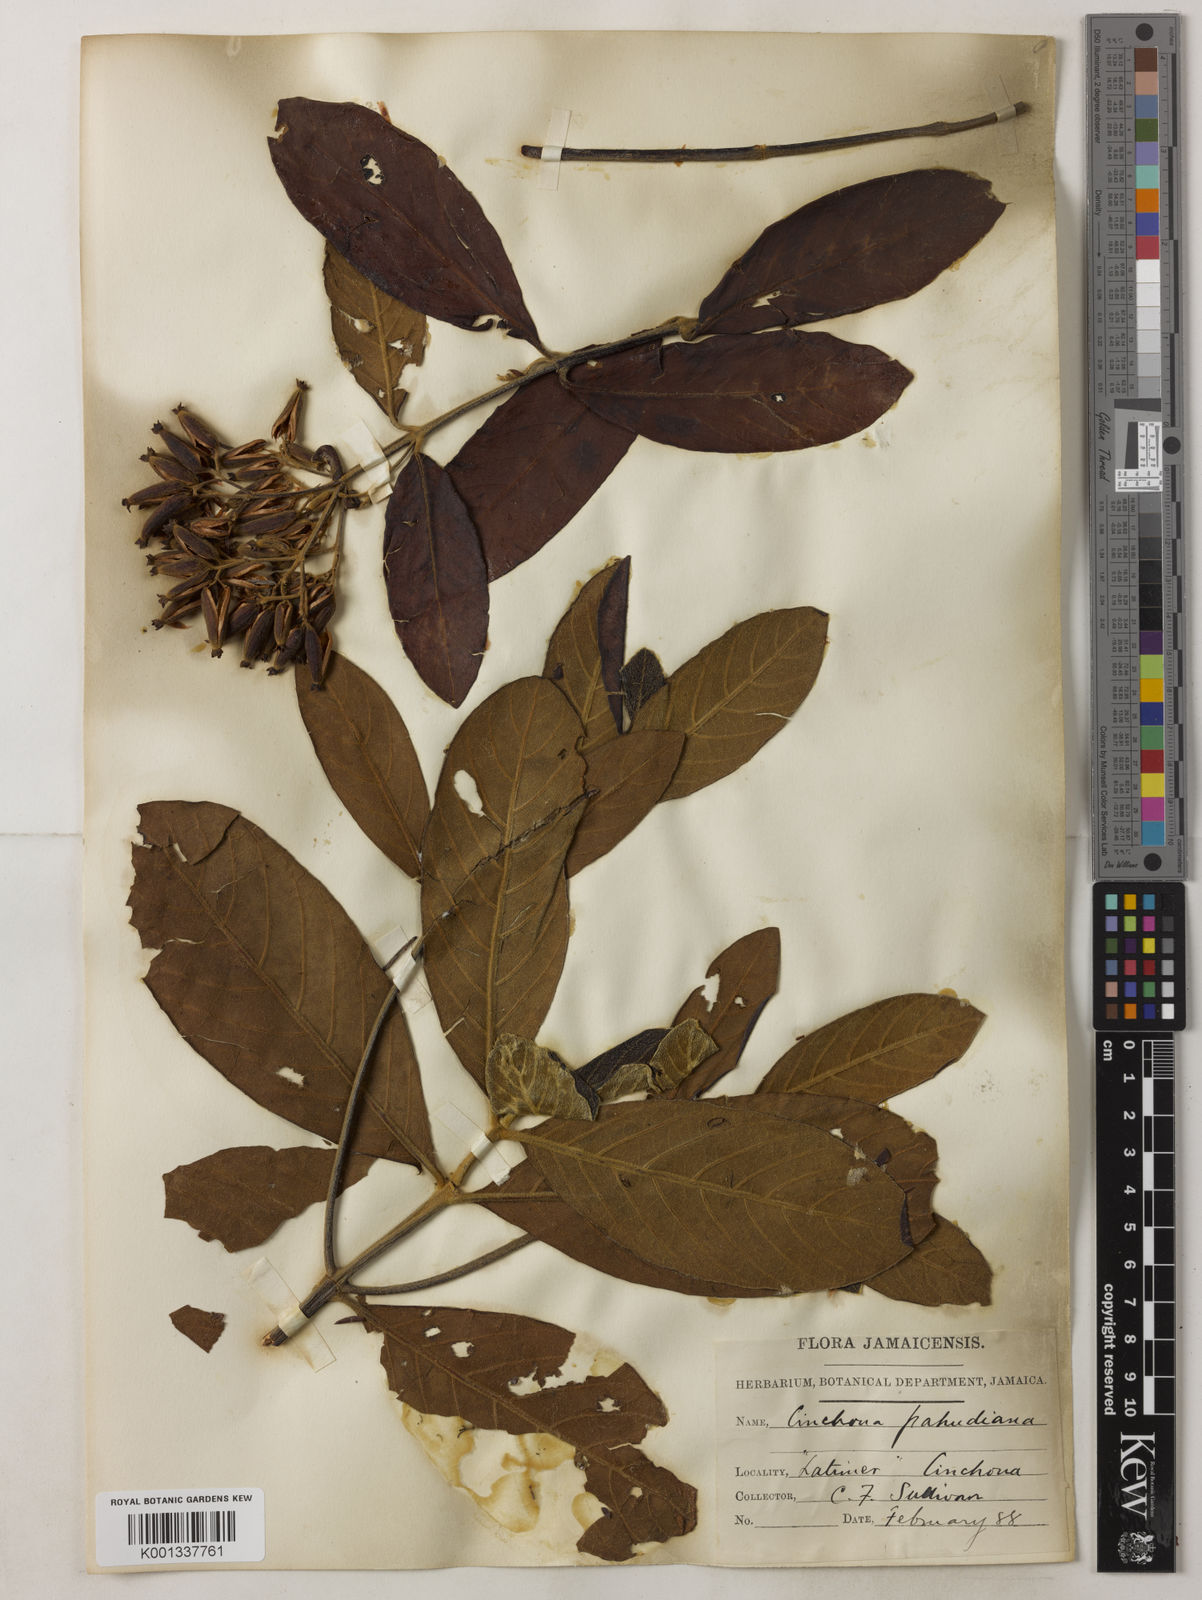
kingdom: Plantae
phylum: Tracheophyta
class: Magnoliopsida
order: Gentianales
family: Rubiaceae
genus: Cinchona
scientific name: Cinchona calisaya
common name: Ledgerbark
